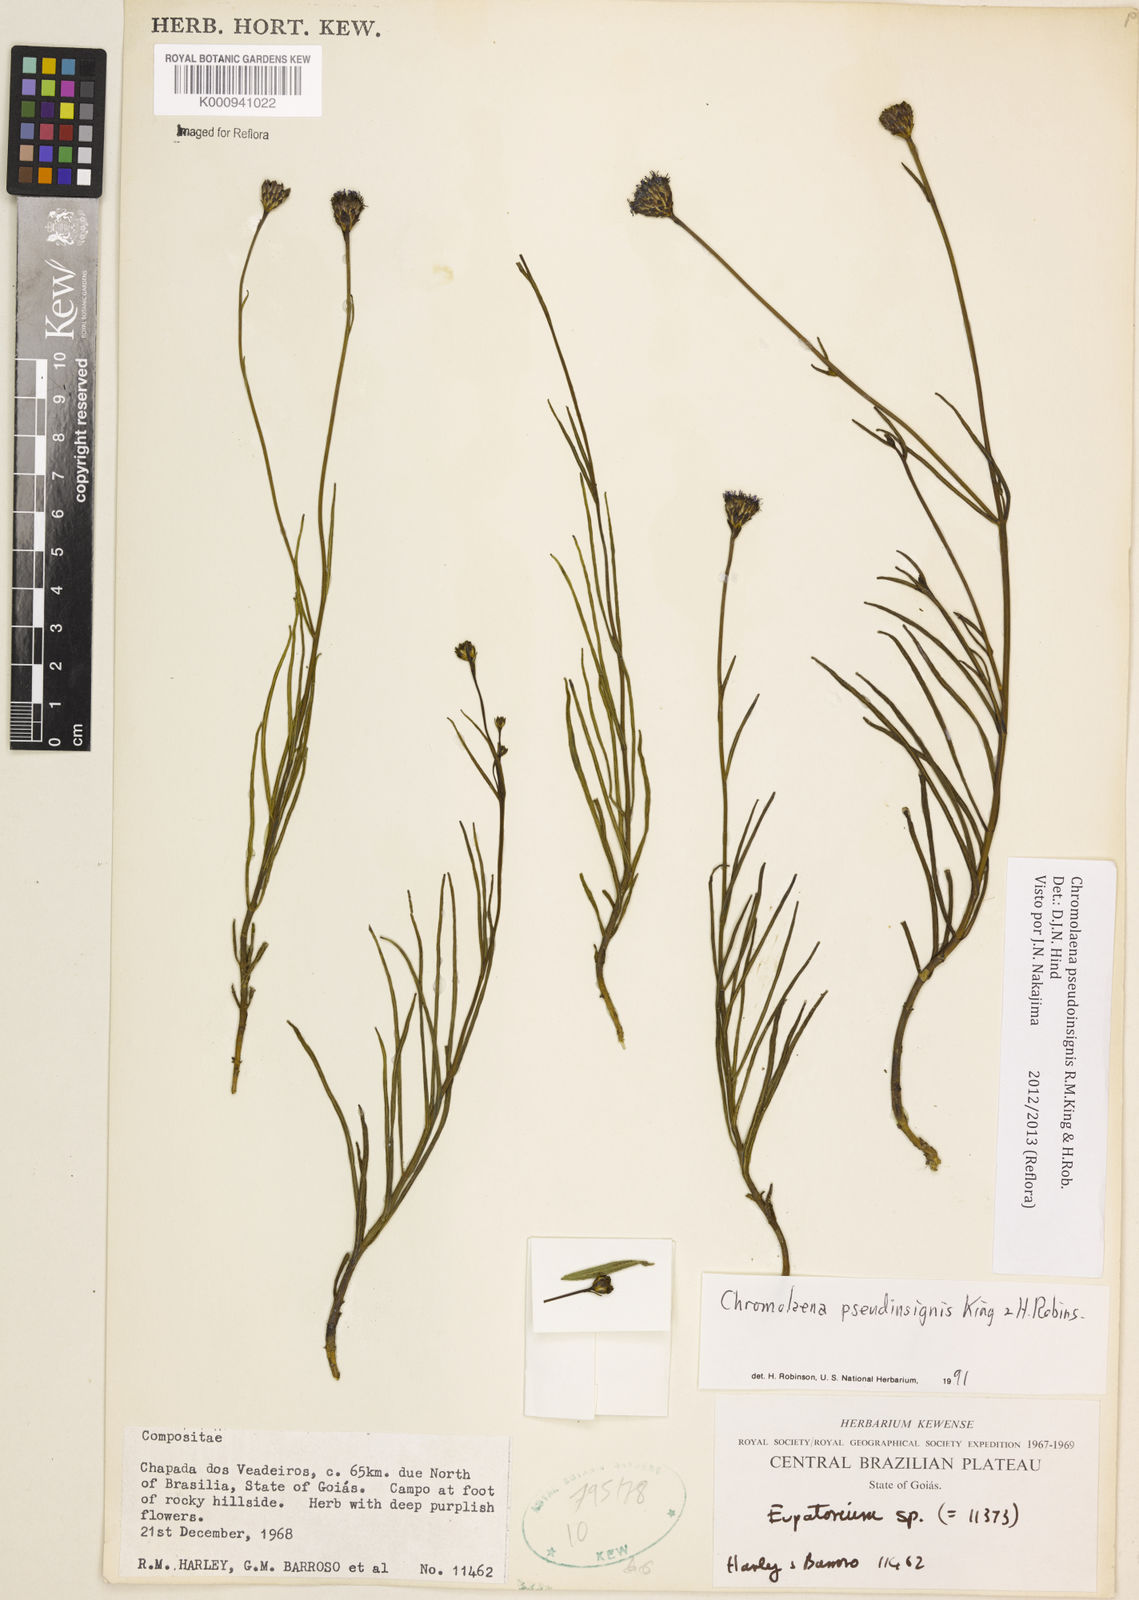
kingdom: Plantae
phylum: Tracheophyta
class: Magnoliopsida
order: Asterales
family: Asteraceae
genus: Chromolaena
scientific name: Chromolaena
